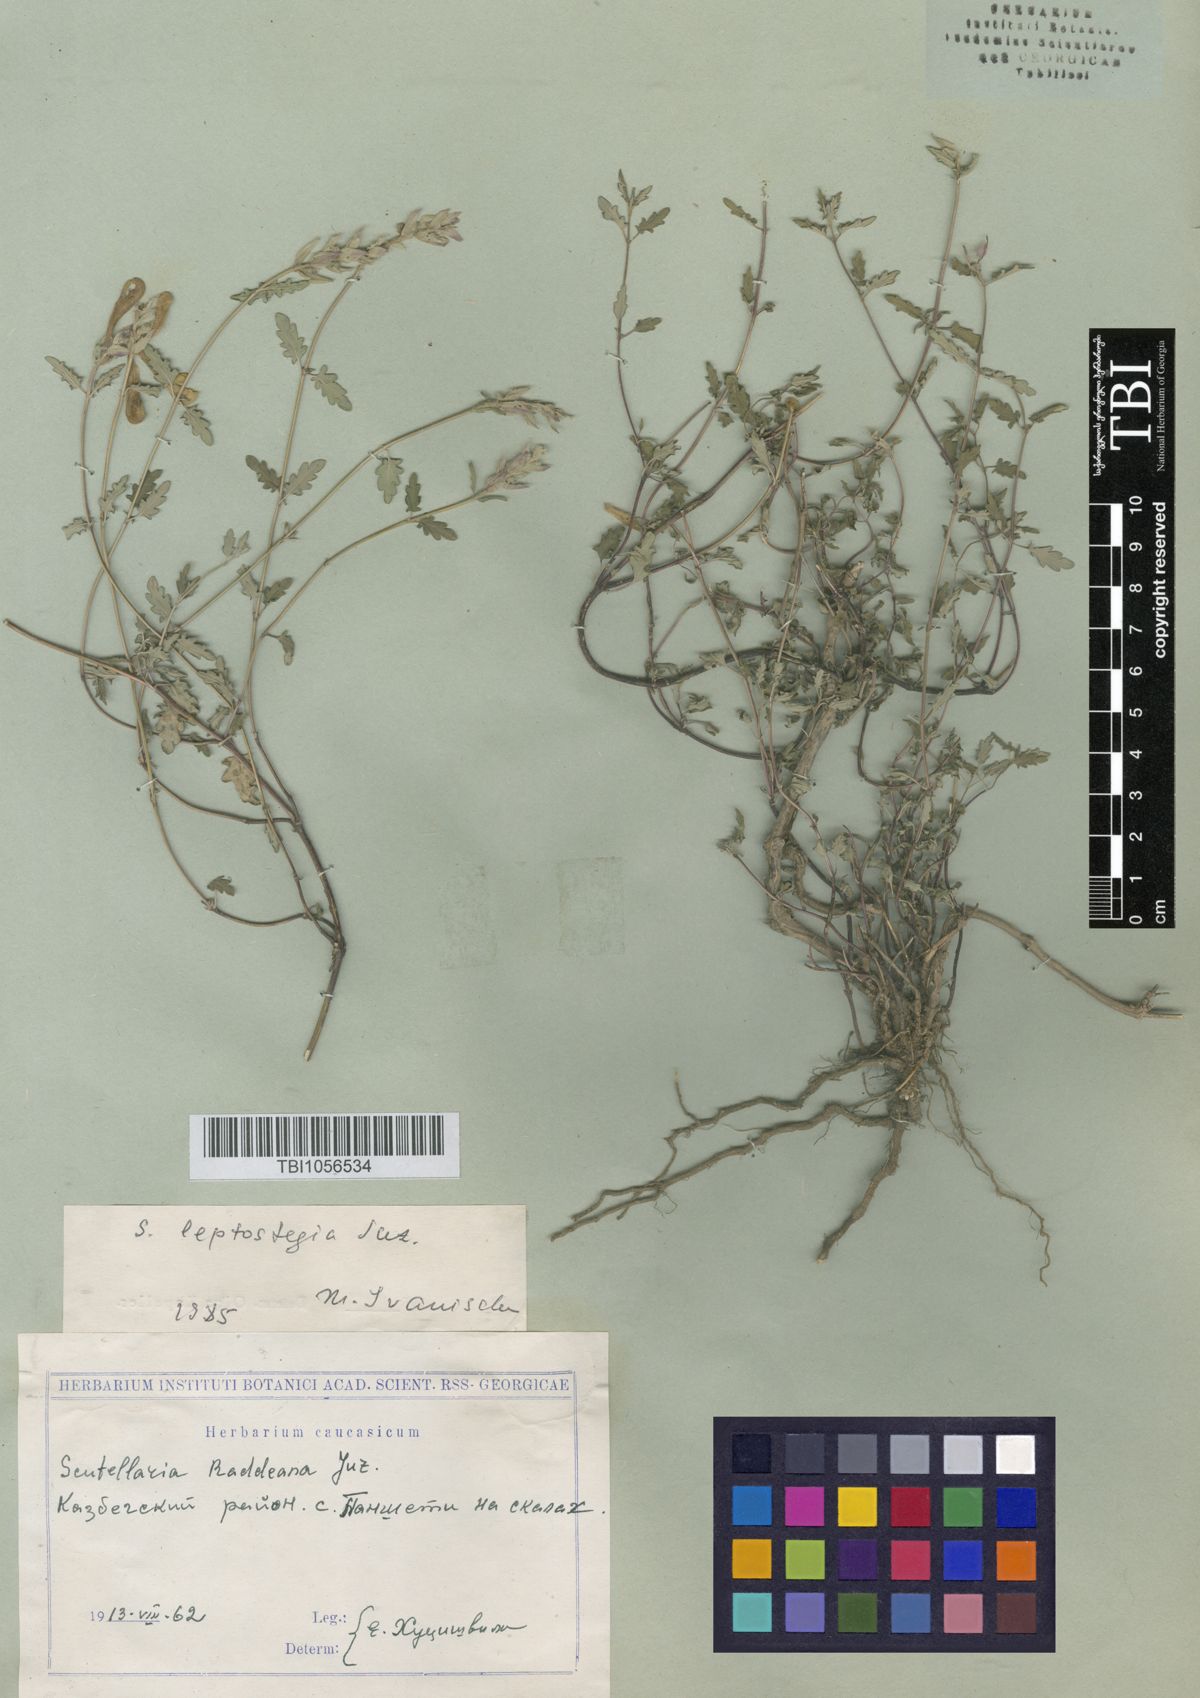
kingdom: Plantae
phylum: Tracheophyta
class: Magnoliopsida
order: Lamiales
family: Lamiaceae
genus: Scutellaria
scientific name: Scutellaria leptostegia
